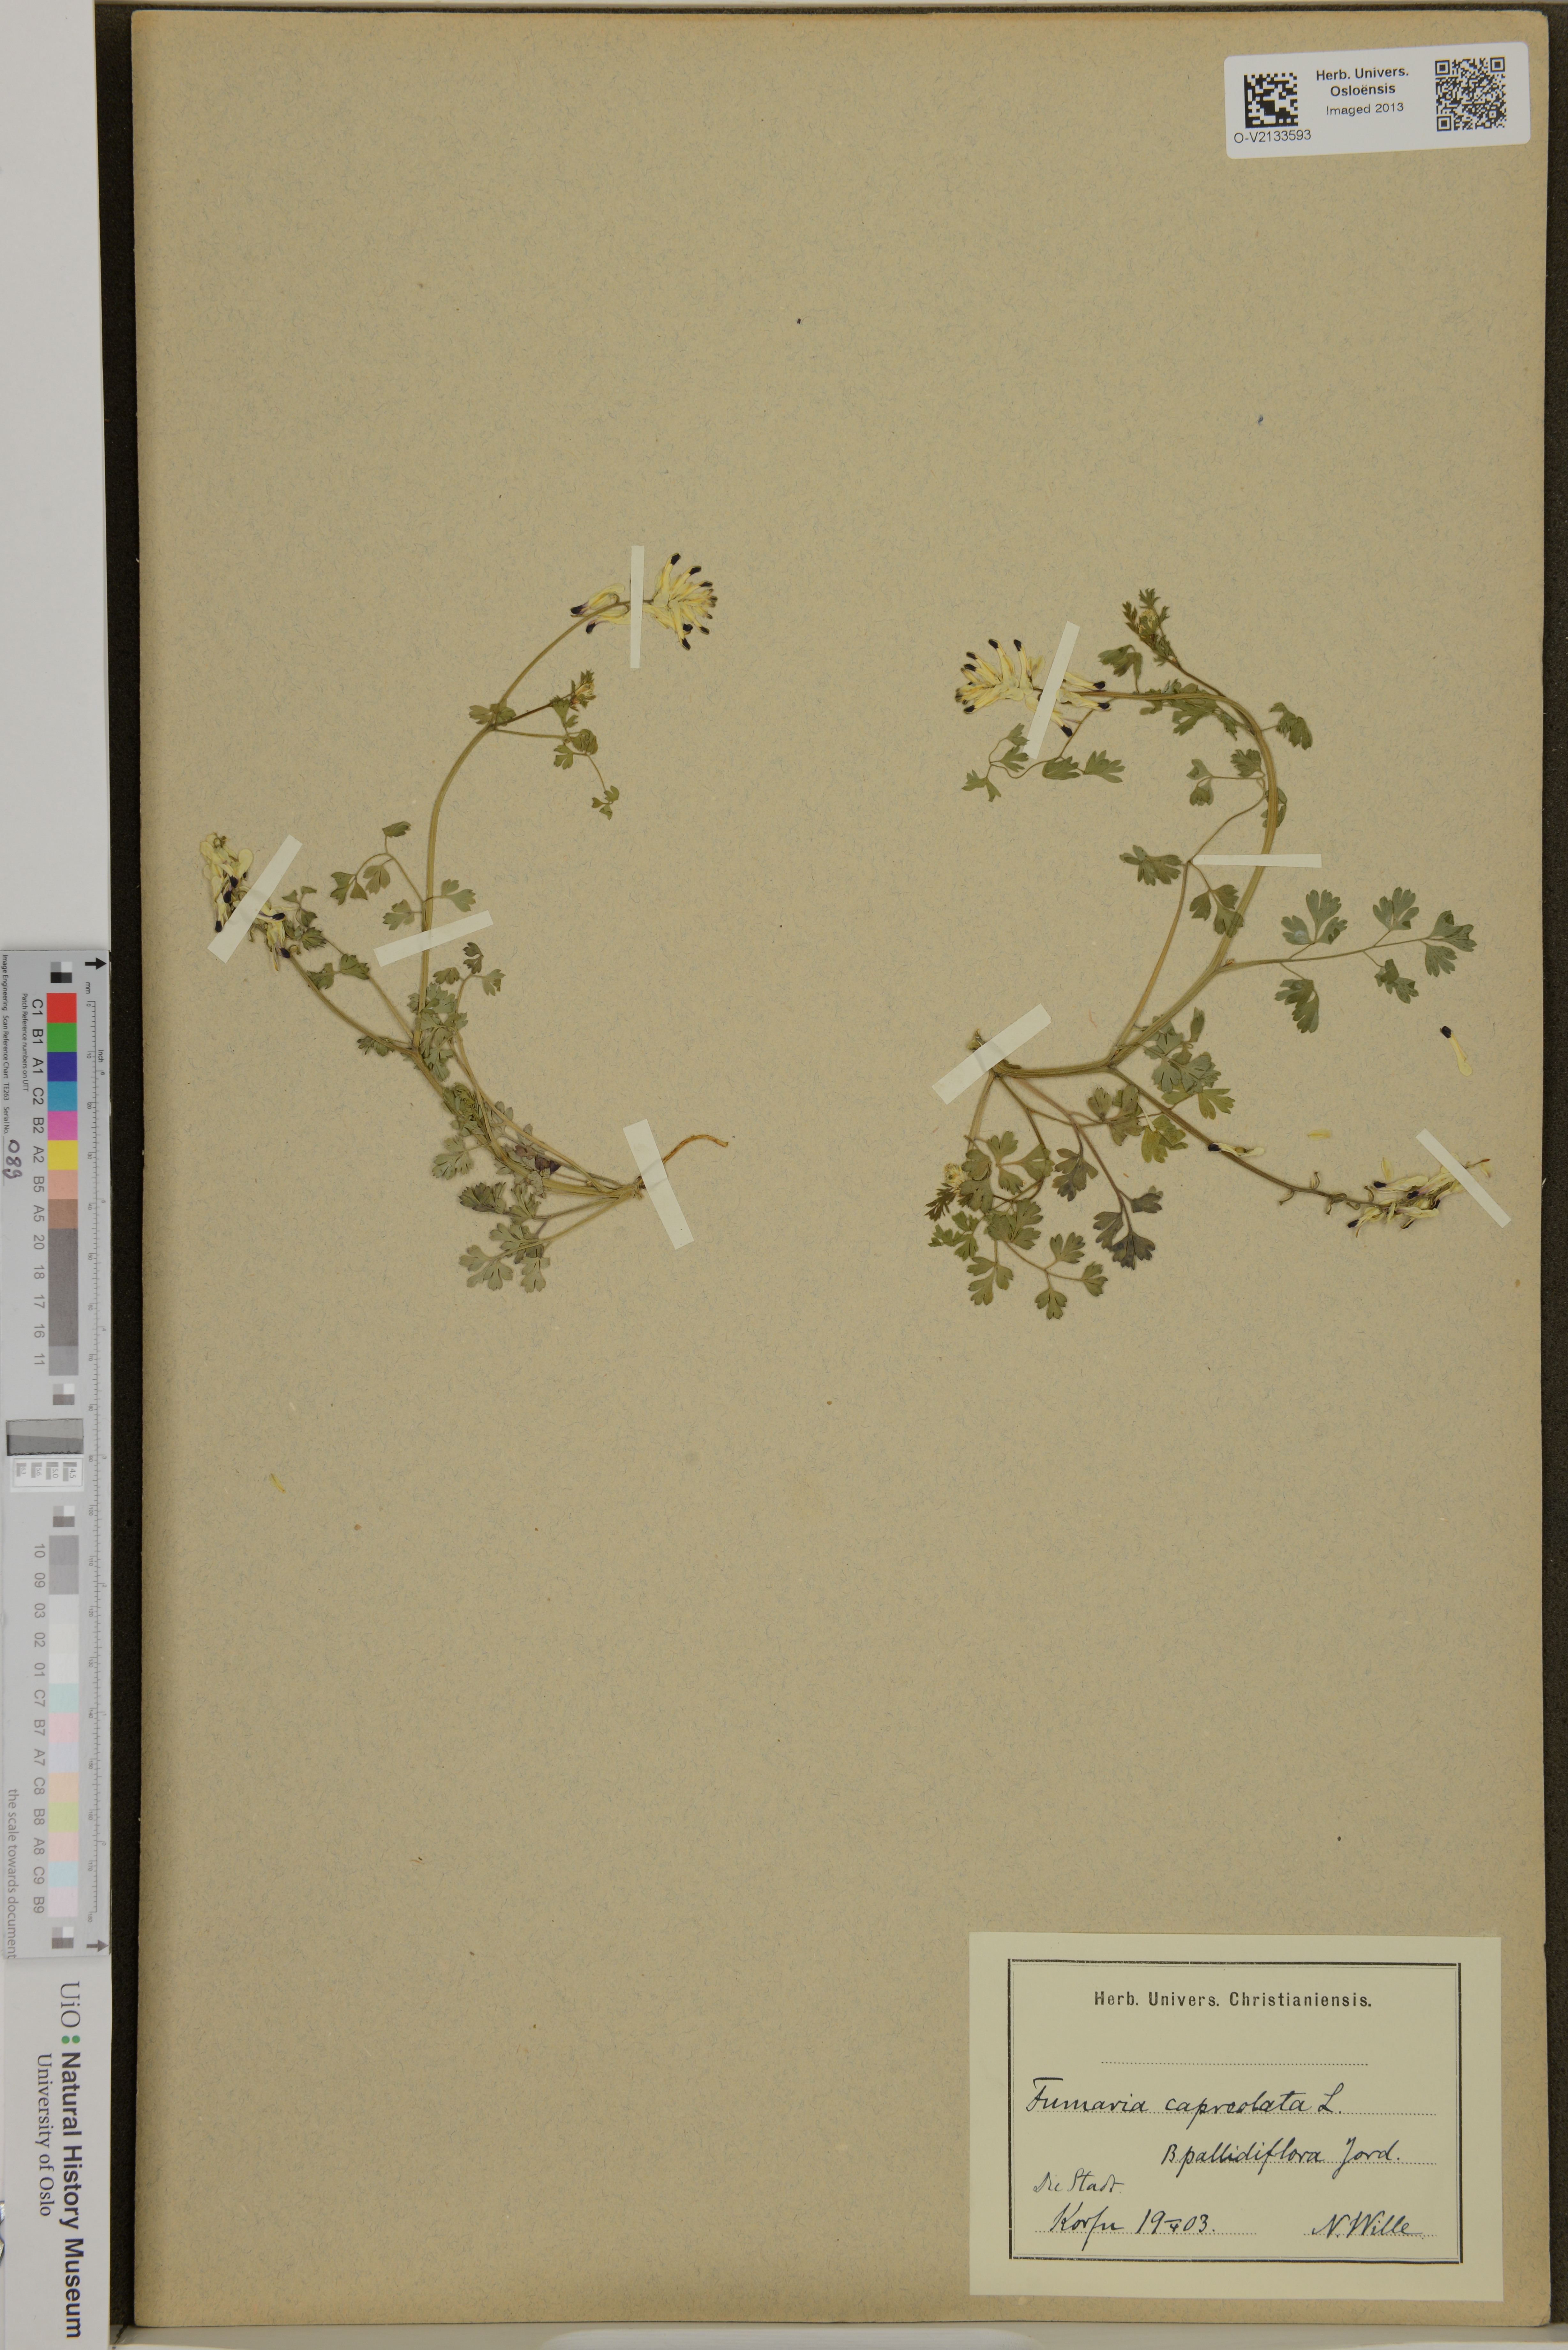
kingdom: Plantae
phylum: Tracheophyta
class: Magnoliopsida
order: Ranunculales
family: Papaveraceae
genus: Fumaria
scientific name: Fumaria capreolata
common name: White ramping-fumitory
